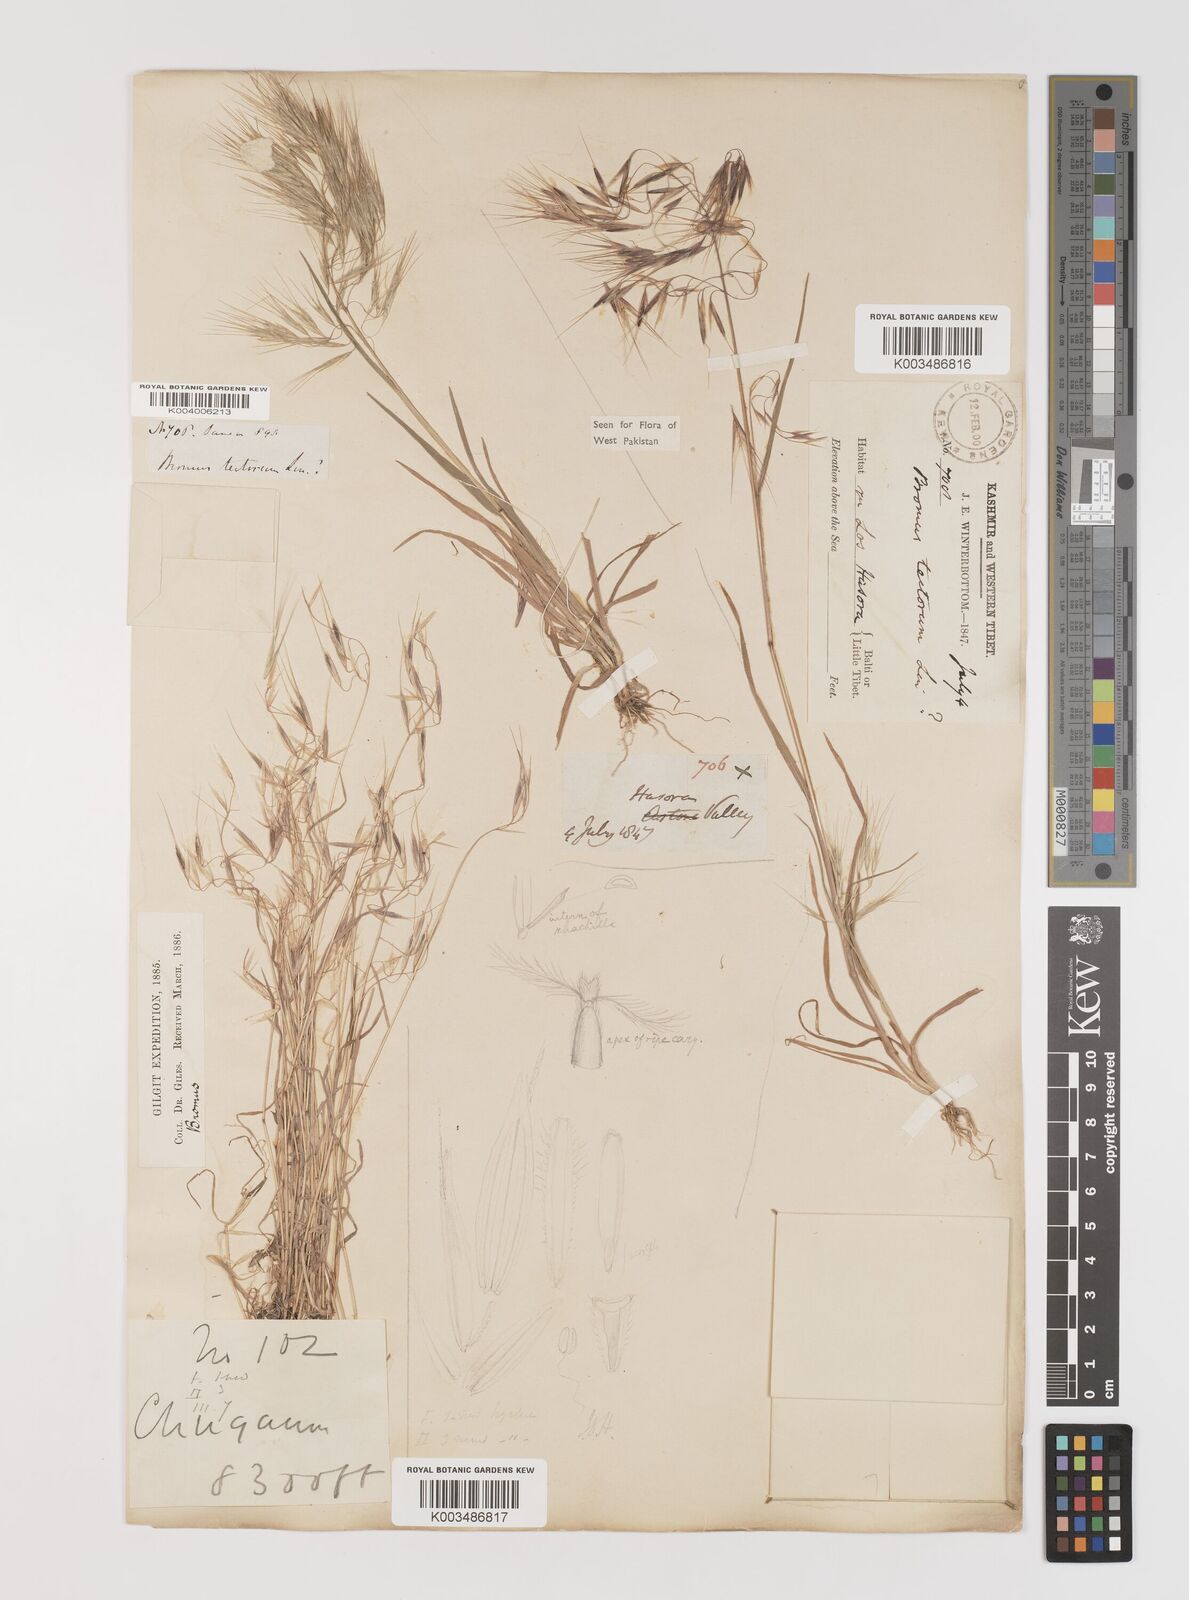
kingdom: Plantae
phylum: Tracheophyta
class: Liliopsida
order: Poales
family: Poaceae
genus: Bromus
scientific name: Bromus tectorum
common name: Cheatgrass
